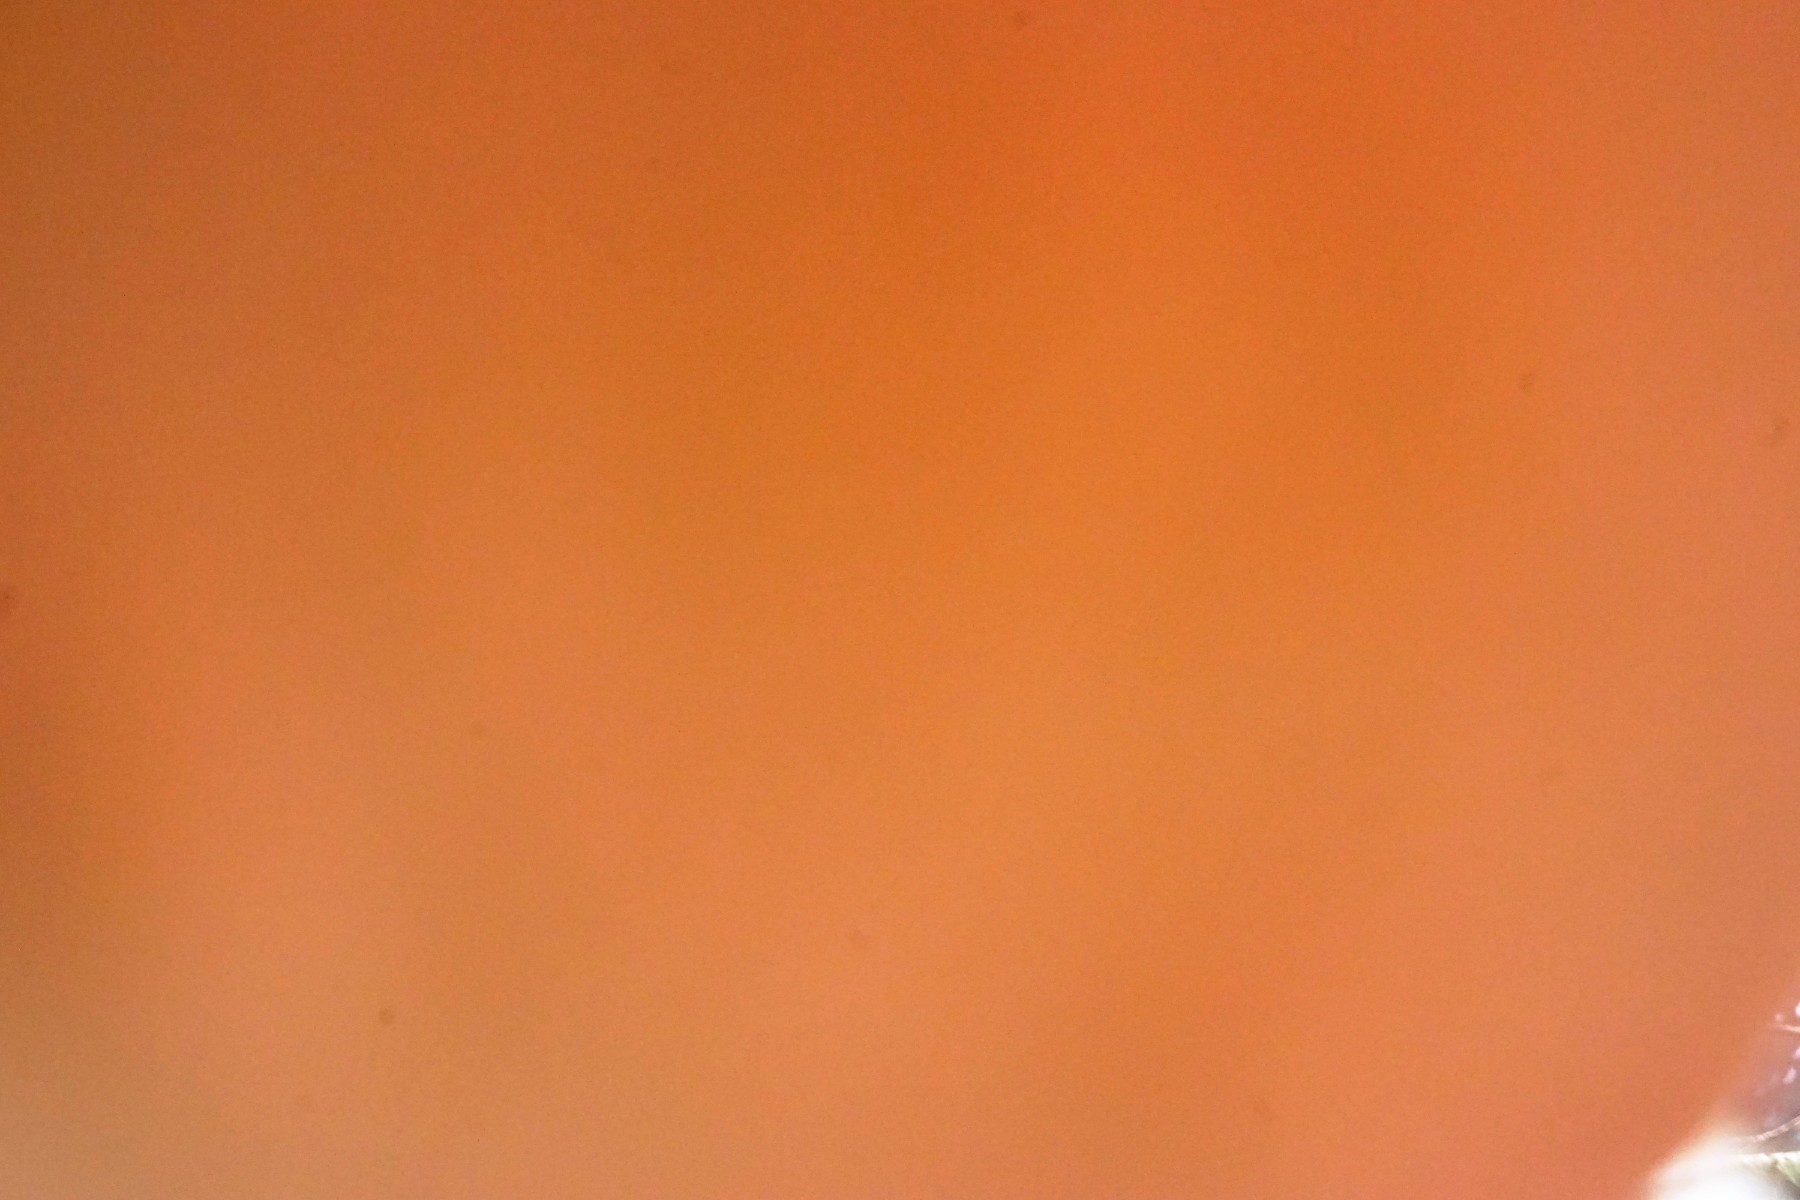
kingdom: Fungi
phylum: Basidiomycota
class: Agaricomycetes
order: Polyporales
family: Fomitopsidaceae
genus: Fomitopsis
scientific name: Fomitopsis pinicola
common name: randbæltet hovporesvamp
